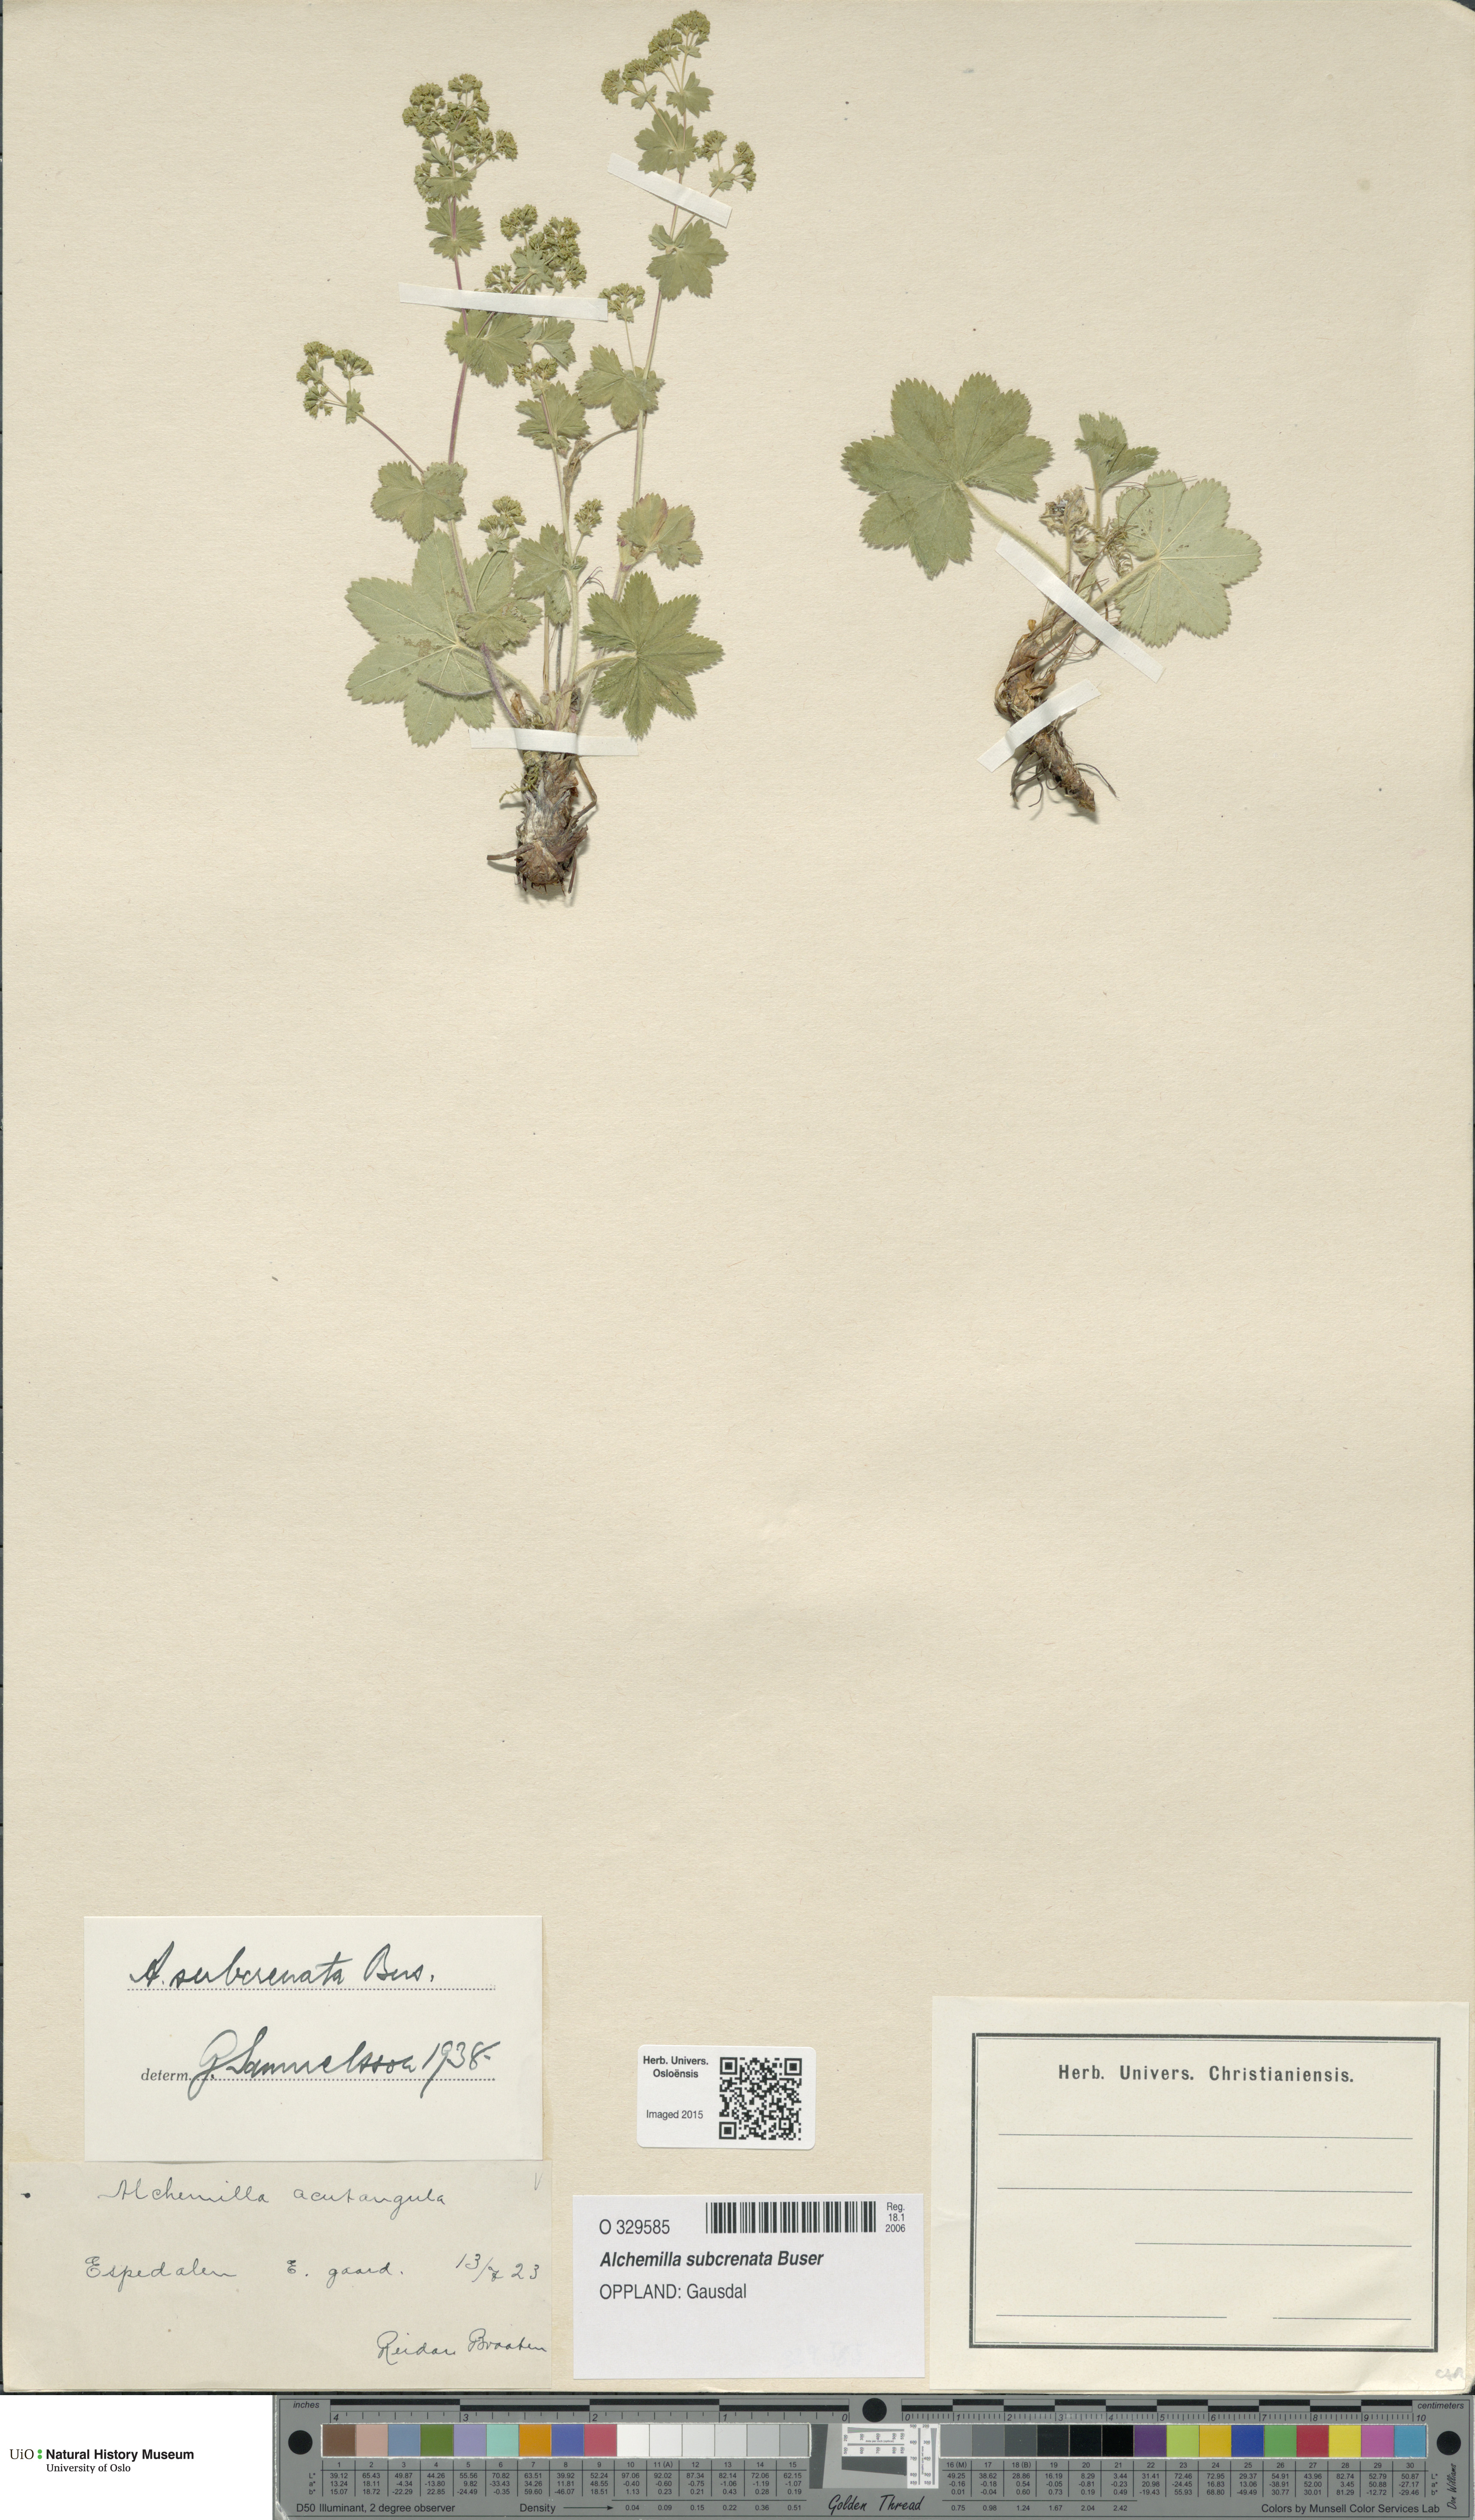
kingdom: Plantae
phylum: Tracheophyta
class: Magnoliopsida
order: Rosales
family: Rosaceae
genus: Alchemilla
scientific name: Alchemilla subcrenata
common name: Broadtooth lady's mantle
